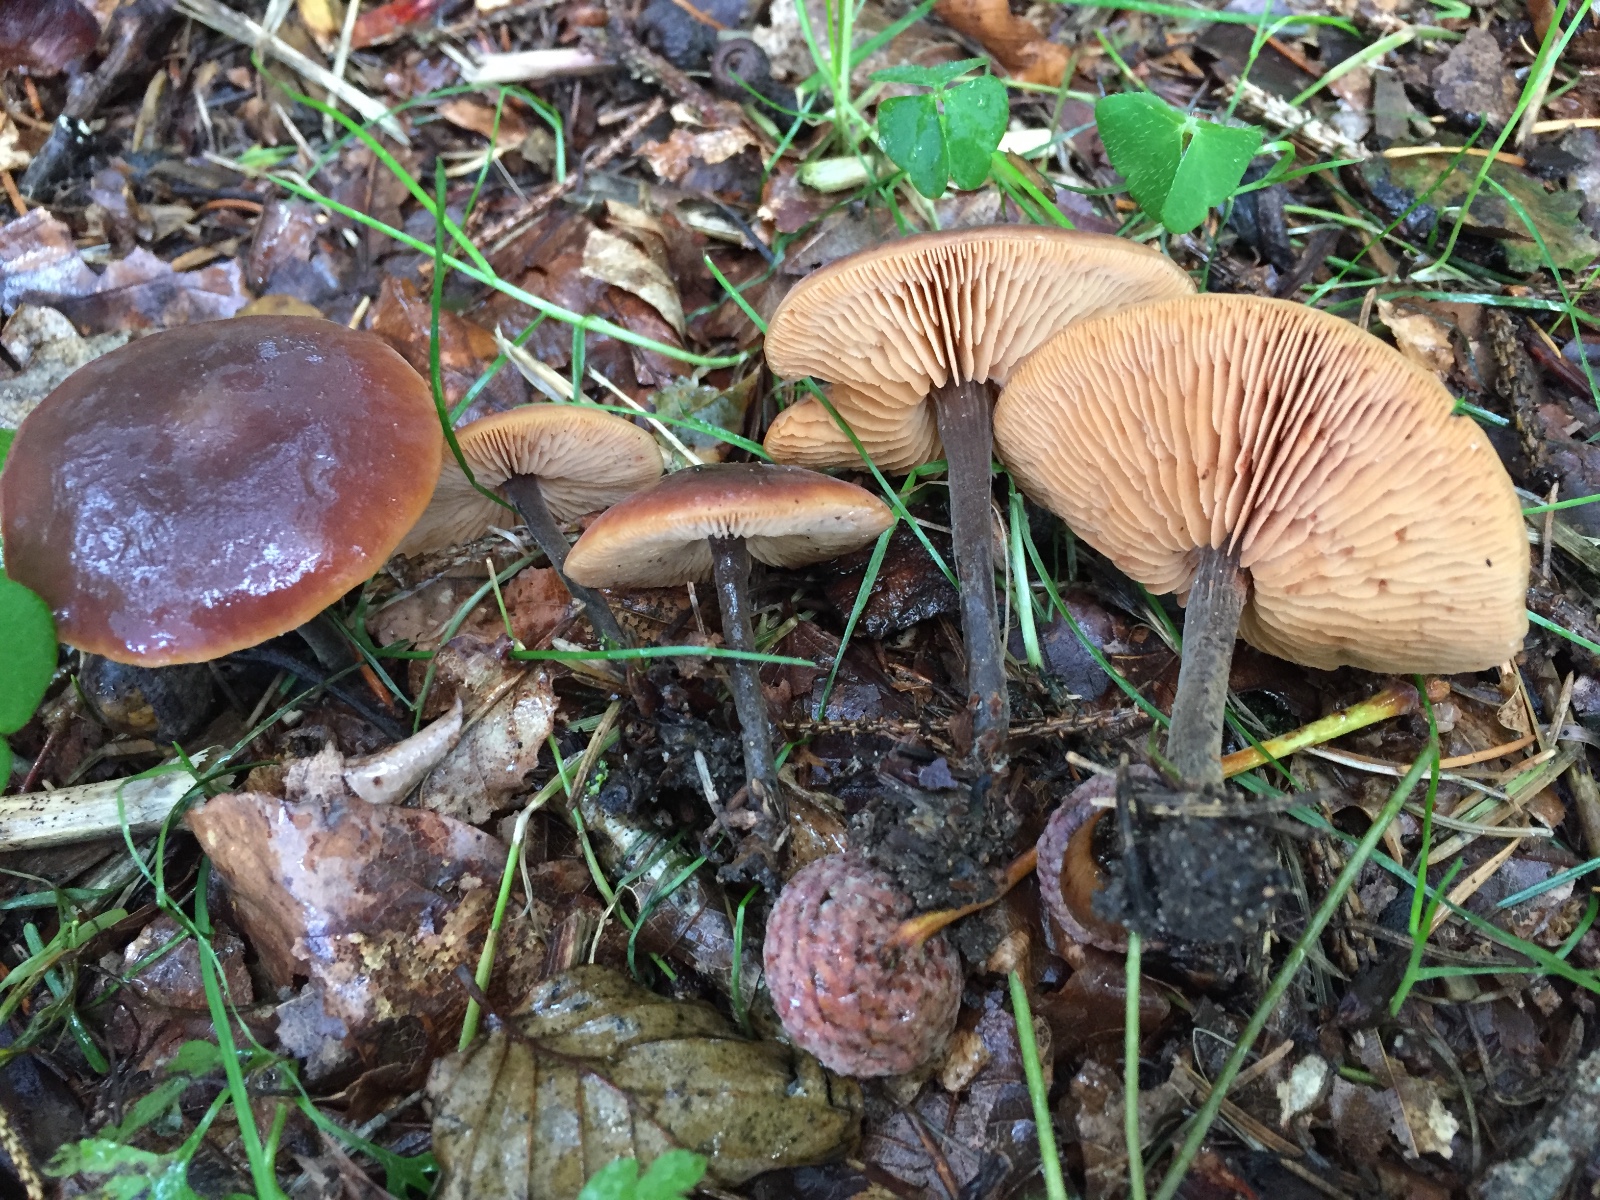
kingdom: Fungi
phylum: Basidiomycota
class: Agaricomycetes
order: Agaricales
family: Macrocystidiaceae
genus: Macrocystidia
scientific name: Macrocystidia cucumis
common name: agurkehat
